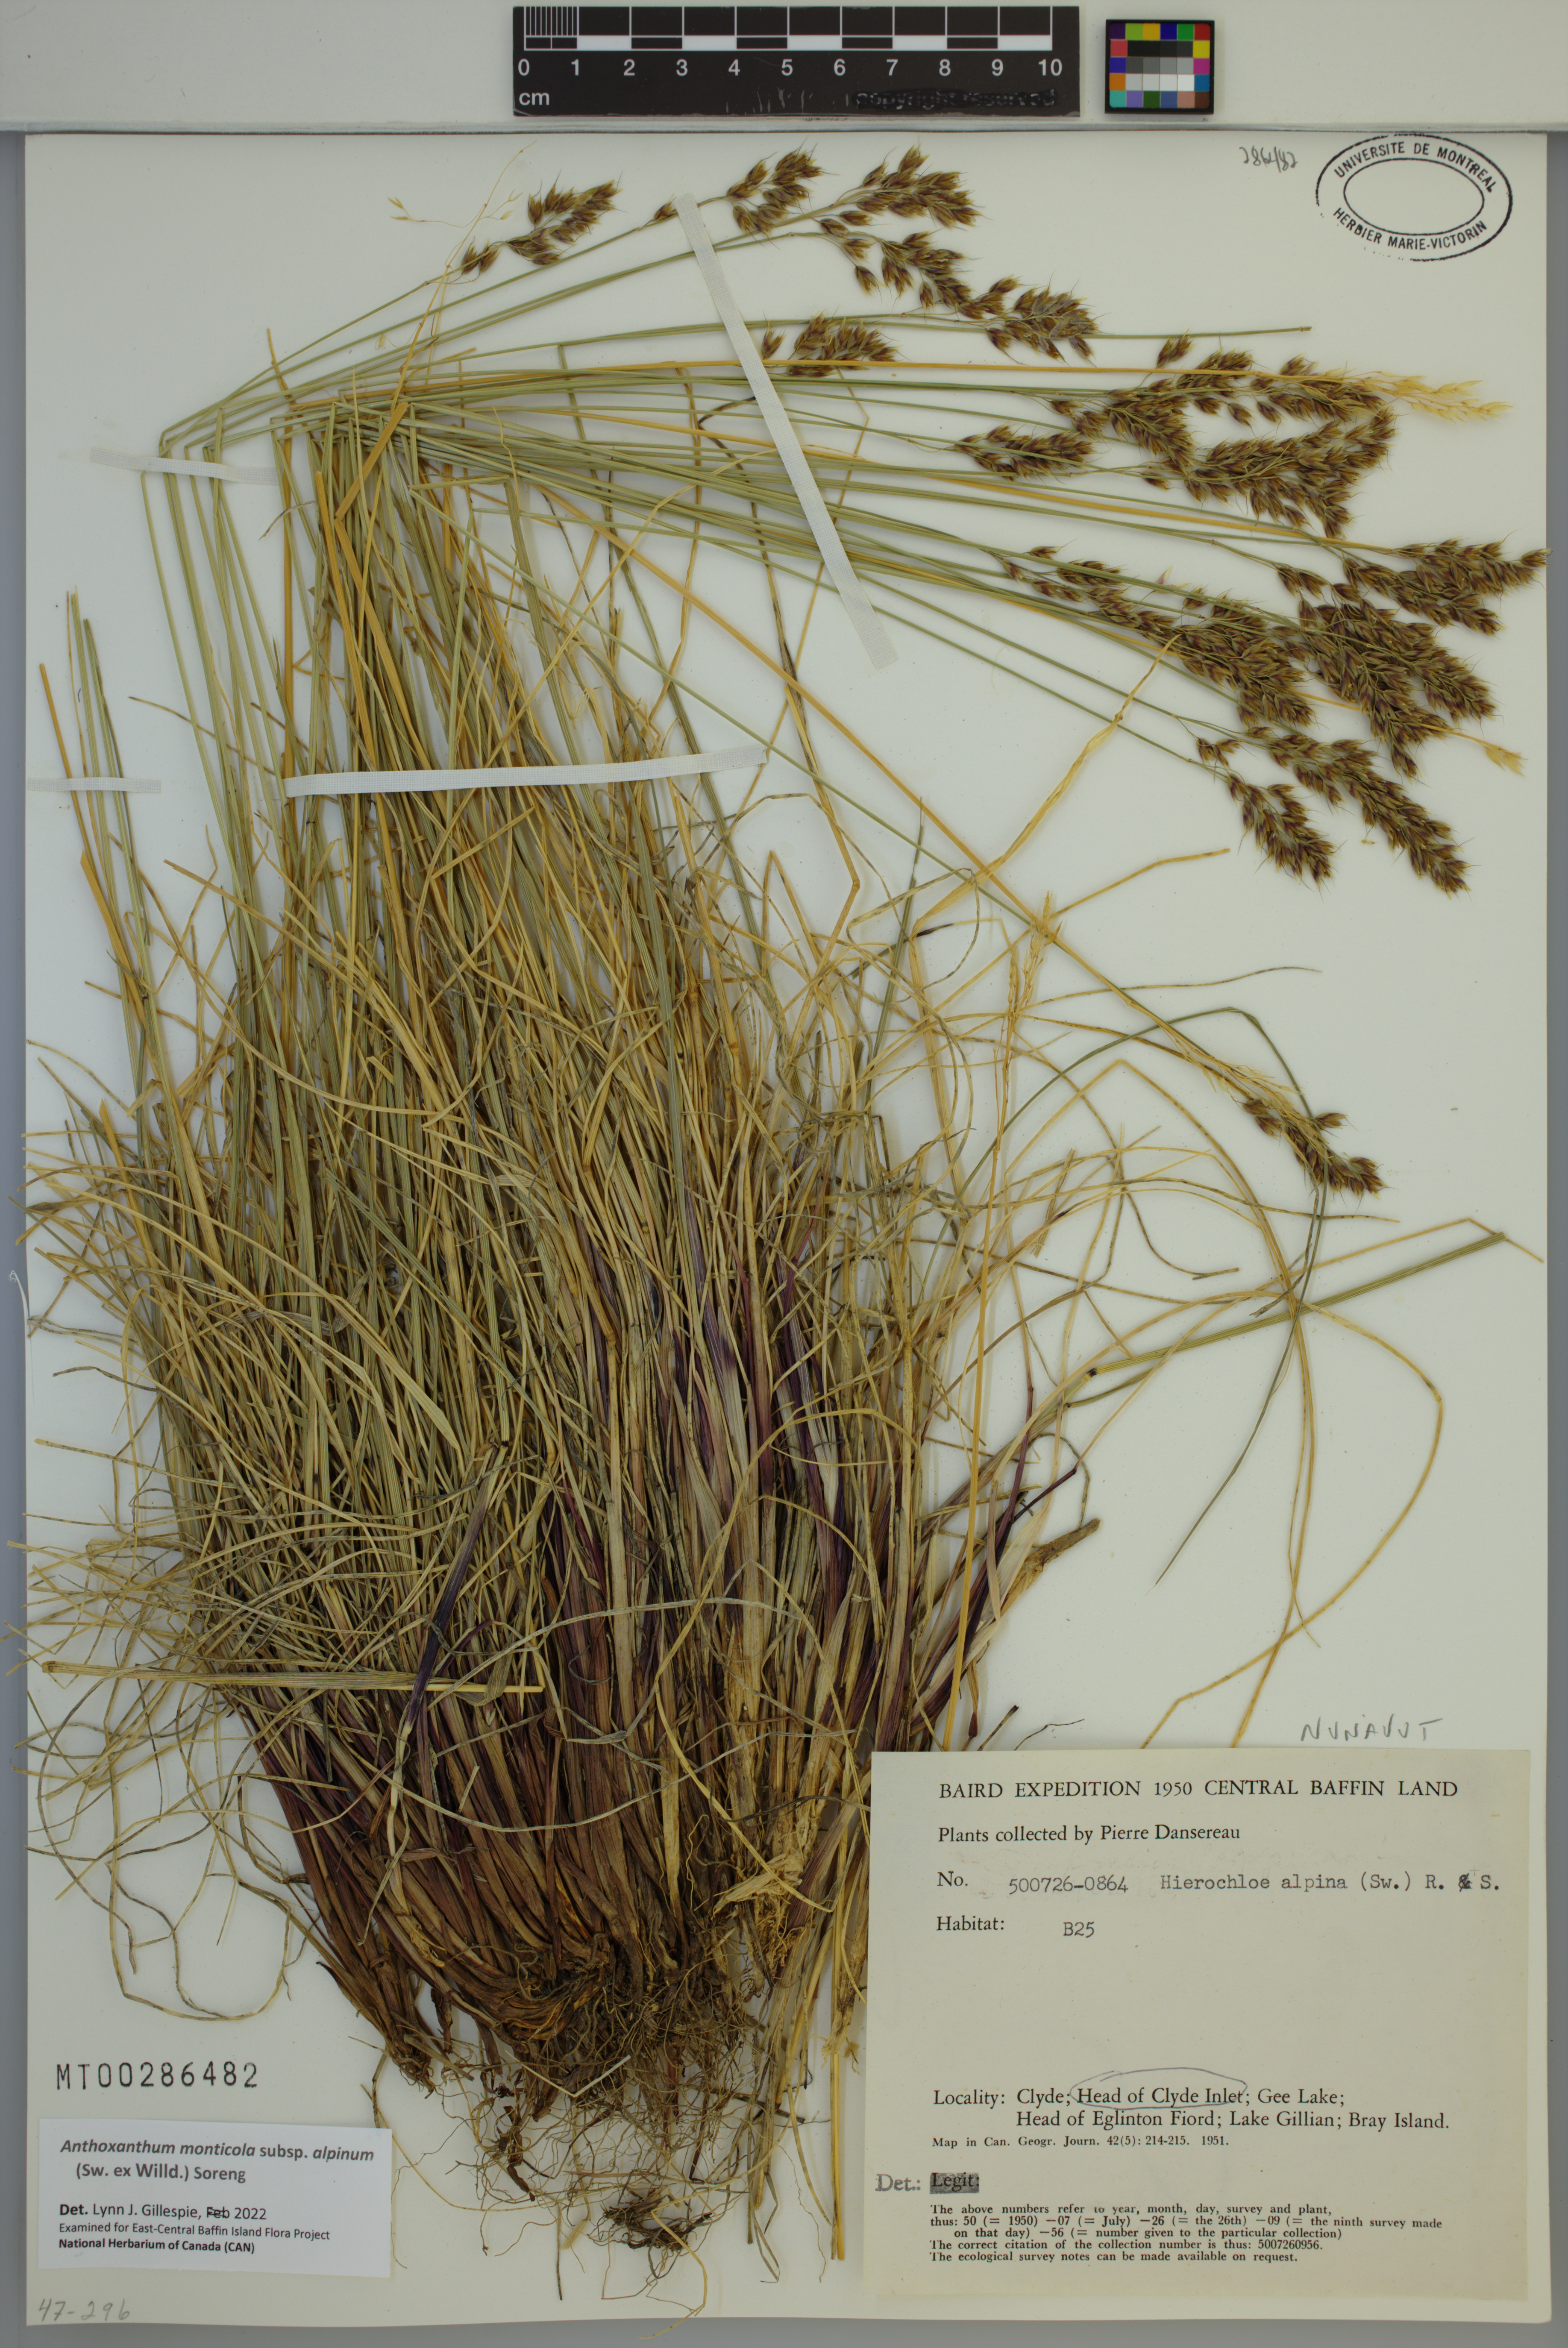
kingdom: Plantae
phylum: Tracheophyta
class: Liliopsida
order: Poales
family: Poaceae
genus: Anthoxanthum
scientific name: Anthoxanthum monticola
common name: Alpine sweetgrass
